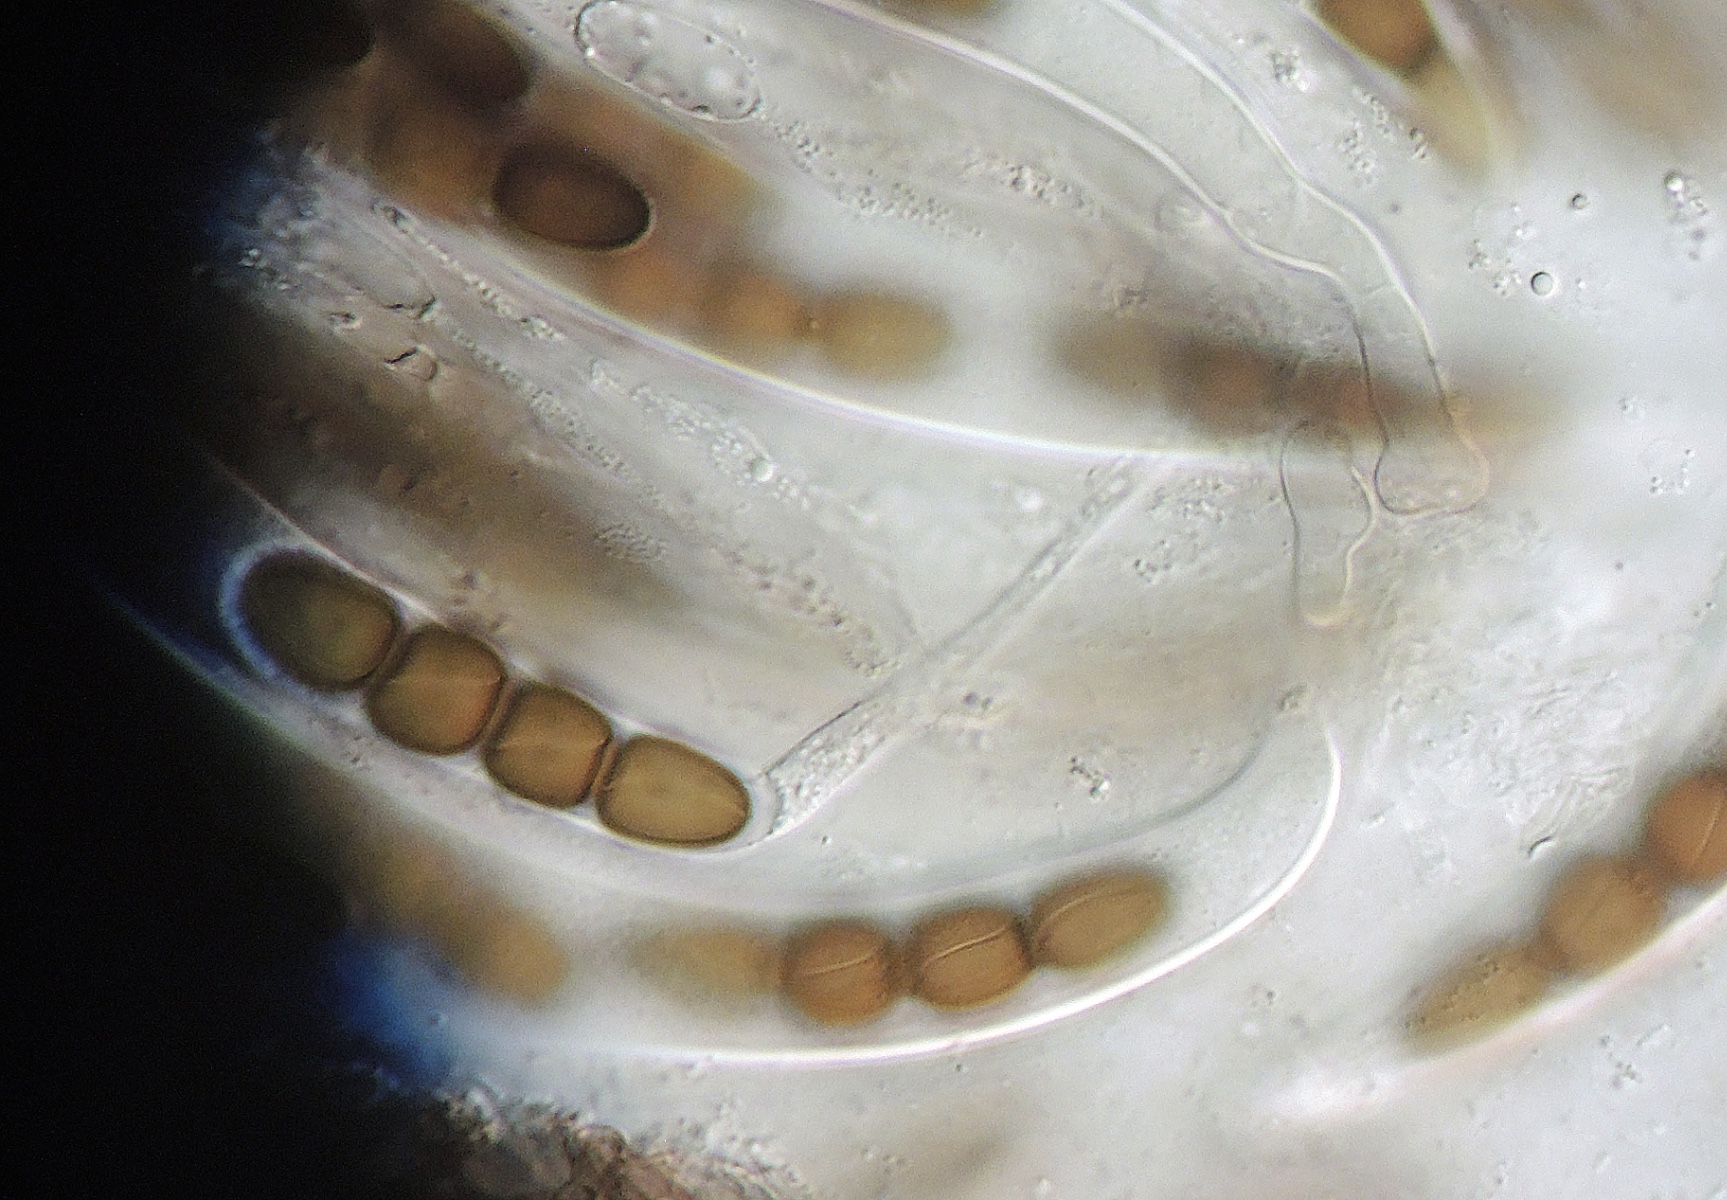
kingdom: Fungi
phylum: Ascomycota
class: Dothideomycetes
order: Pleosporales
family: Sporormiaceae
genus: Sporormiella
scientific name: Sporormiella intermedia
